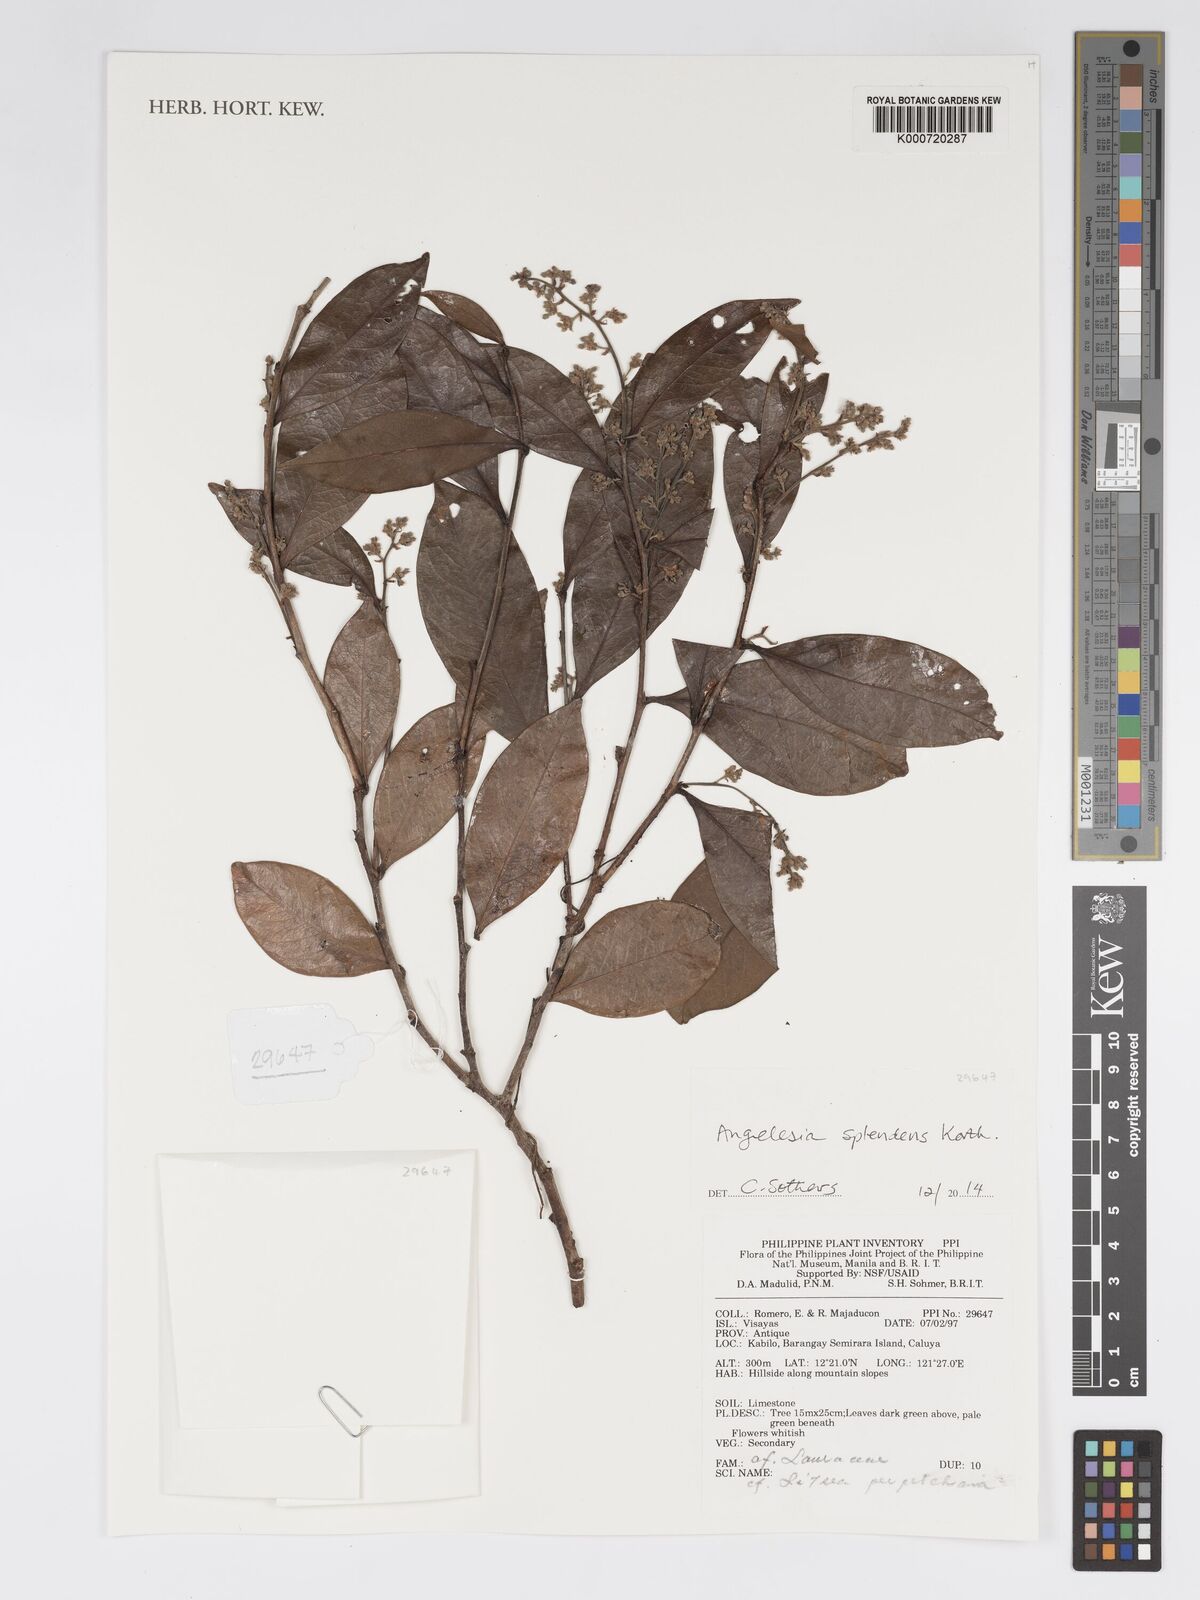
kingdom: Plantae
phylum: Tracheophyta
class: Magnoliopsida
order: Malpighiales
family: Chrysobalanaceae
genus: Angelesia
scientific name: Angelesia fusicarpa
